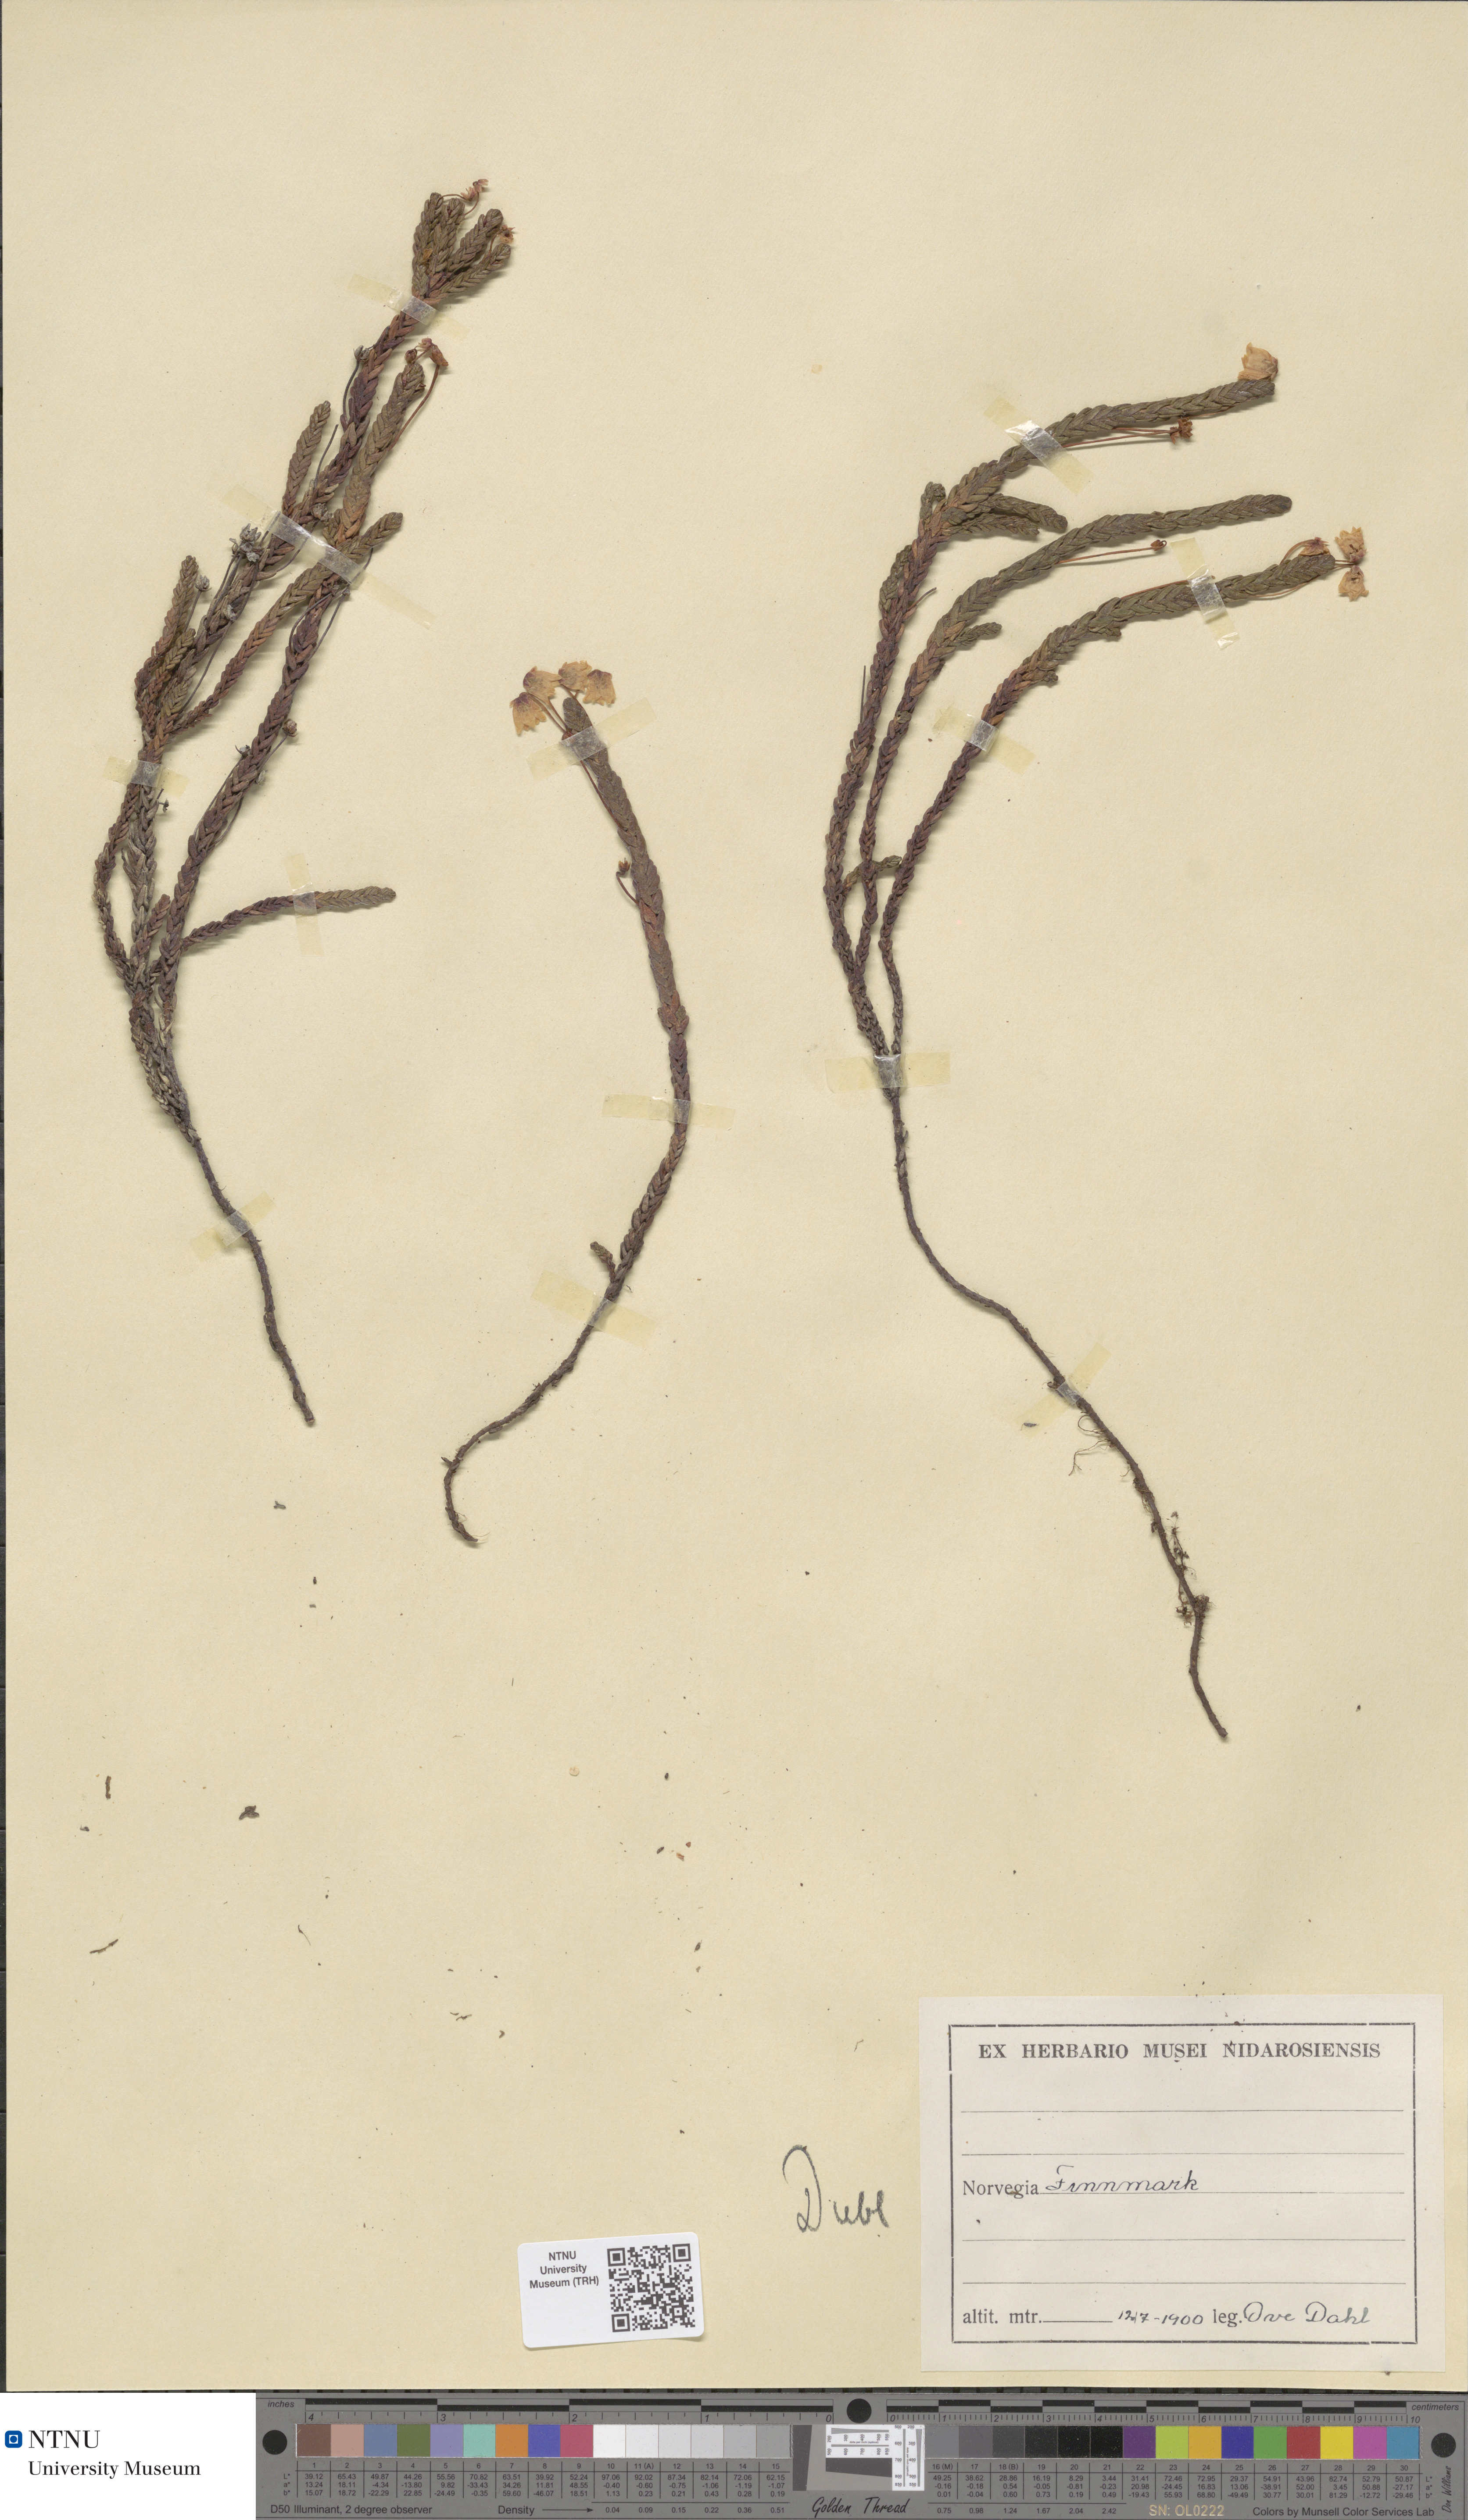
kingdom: Plantae
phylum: Tracheophyta
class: Magnoliopsida
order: Ericales
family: Ericaceae
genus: Cassiope
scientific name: Cassiope tetragona
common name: Arctic bell heather
